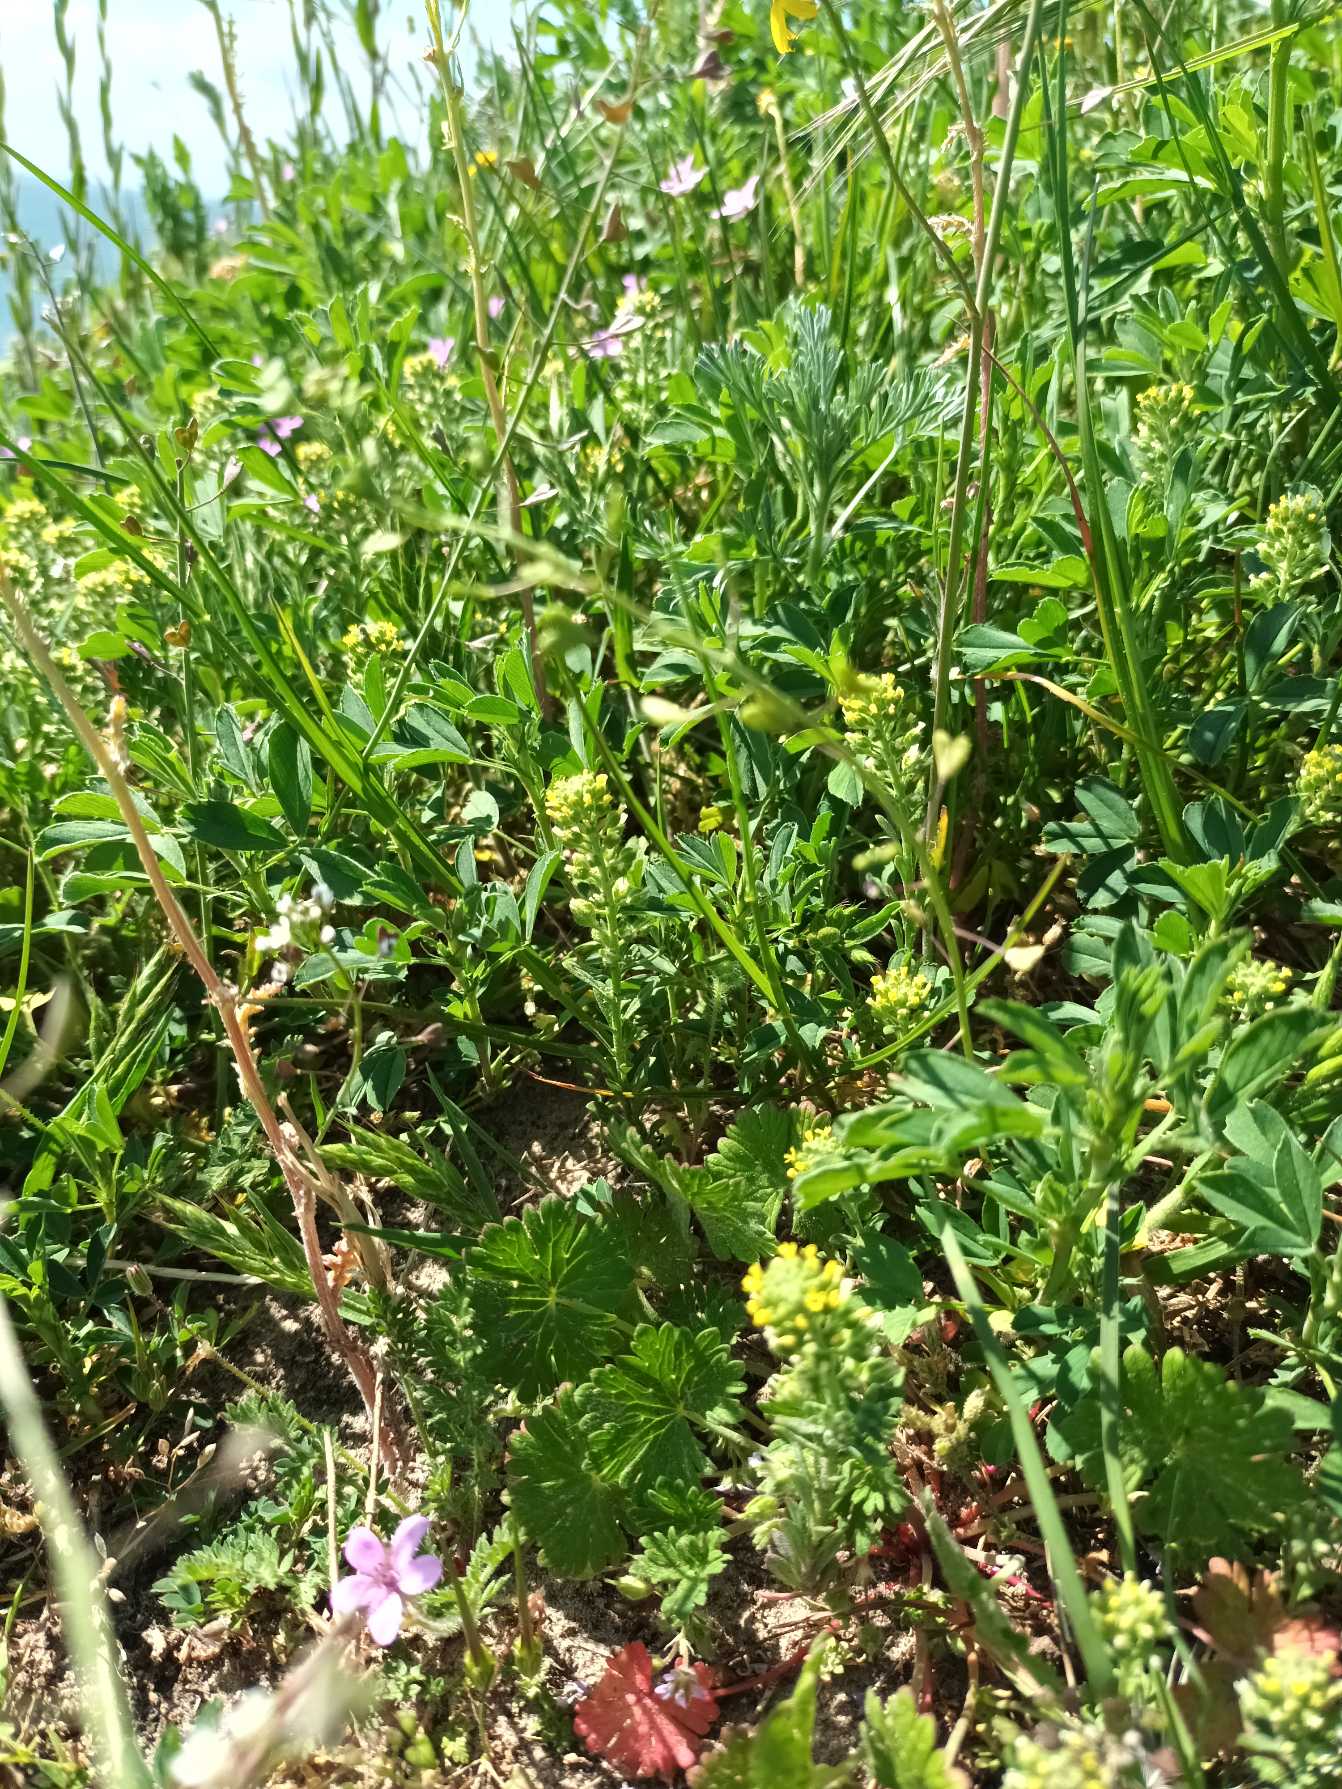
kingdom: Plantae
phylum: Tracheophyta
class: Magnoliopsida
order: Brassicales
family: Brassicaceae
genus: Alyssum
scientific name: Alyssum alyssoides
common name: Grådodder
